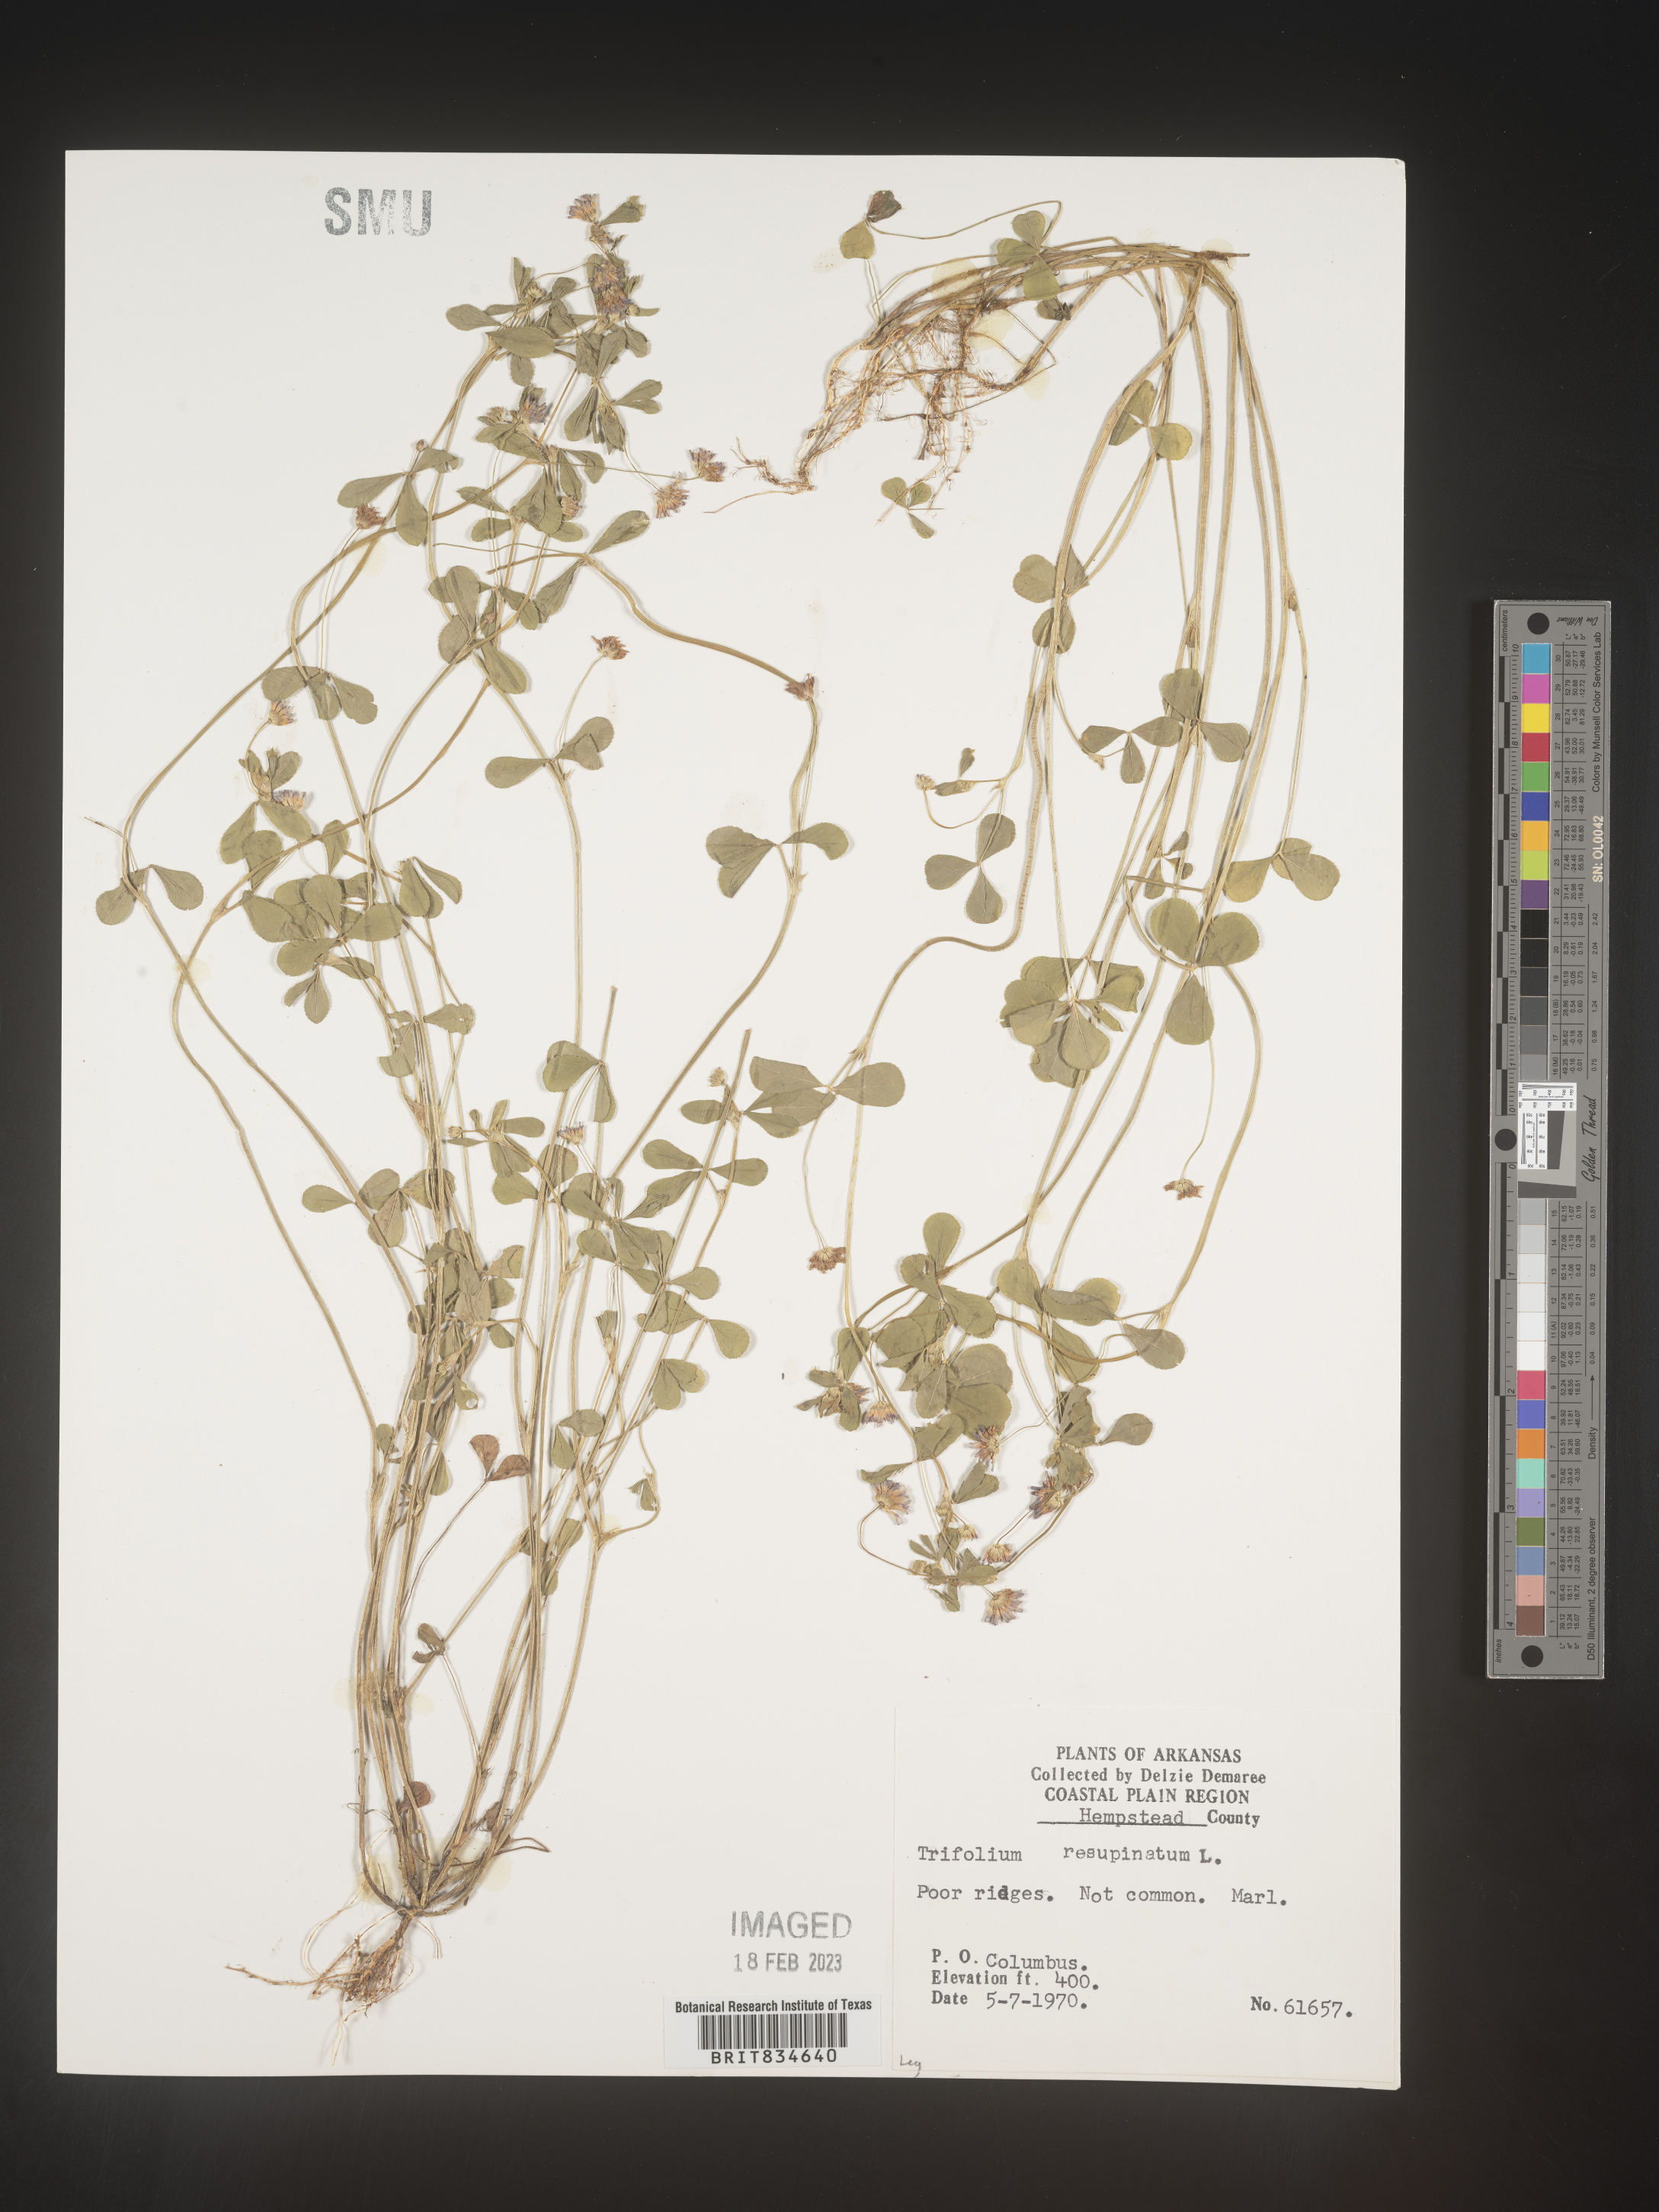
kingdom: Plantae
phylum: Tracheophyta
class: Magnoliopsida
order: Fabales
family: Fabaceae
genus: Trifolium
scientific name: Trifolium resupinatum
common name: Reversed clover
